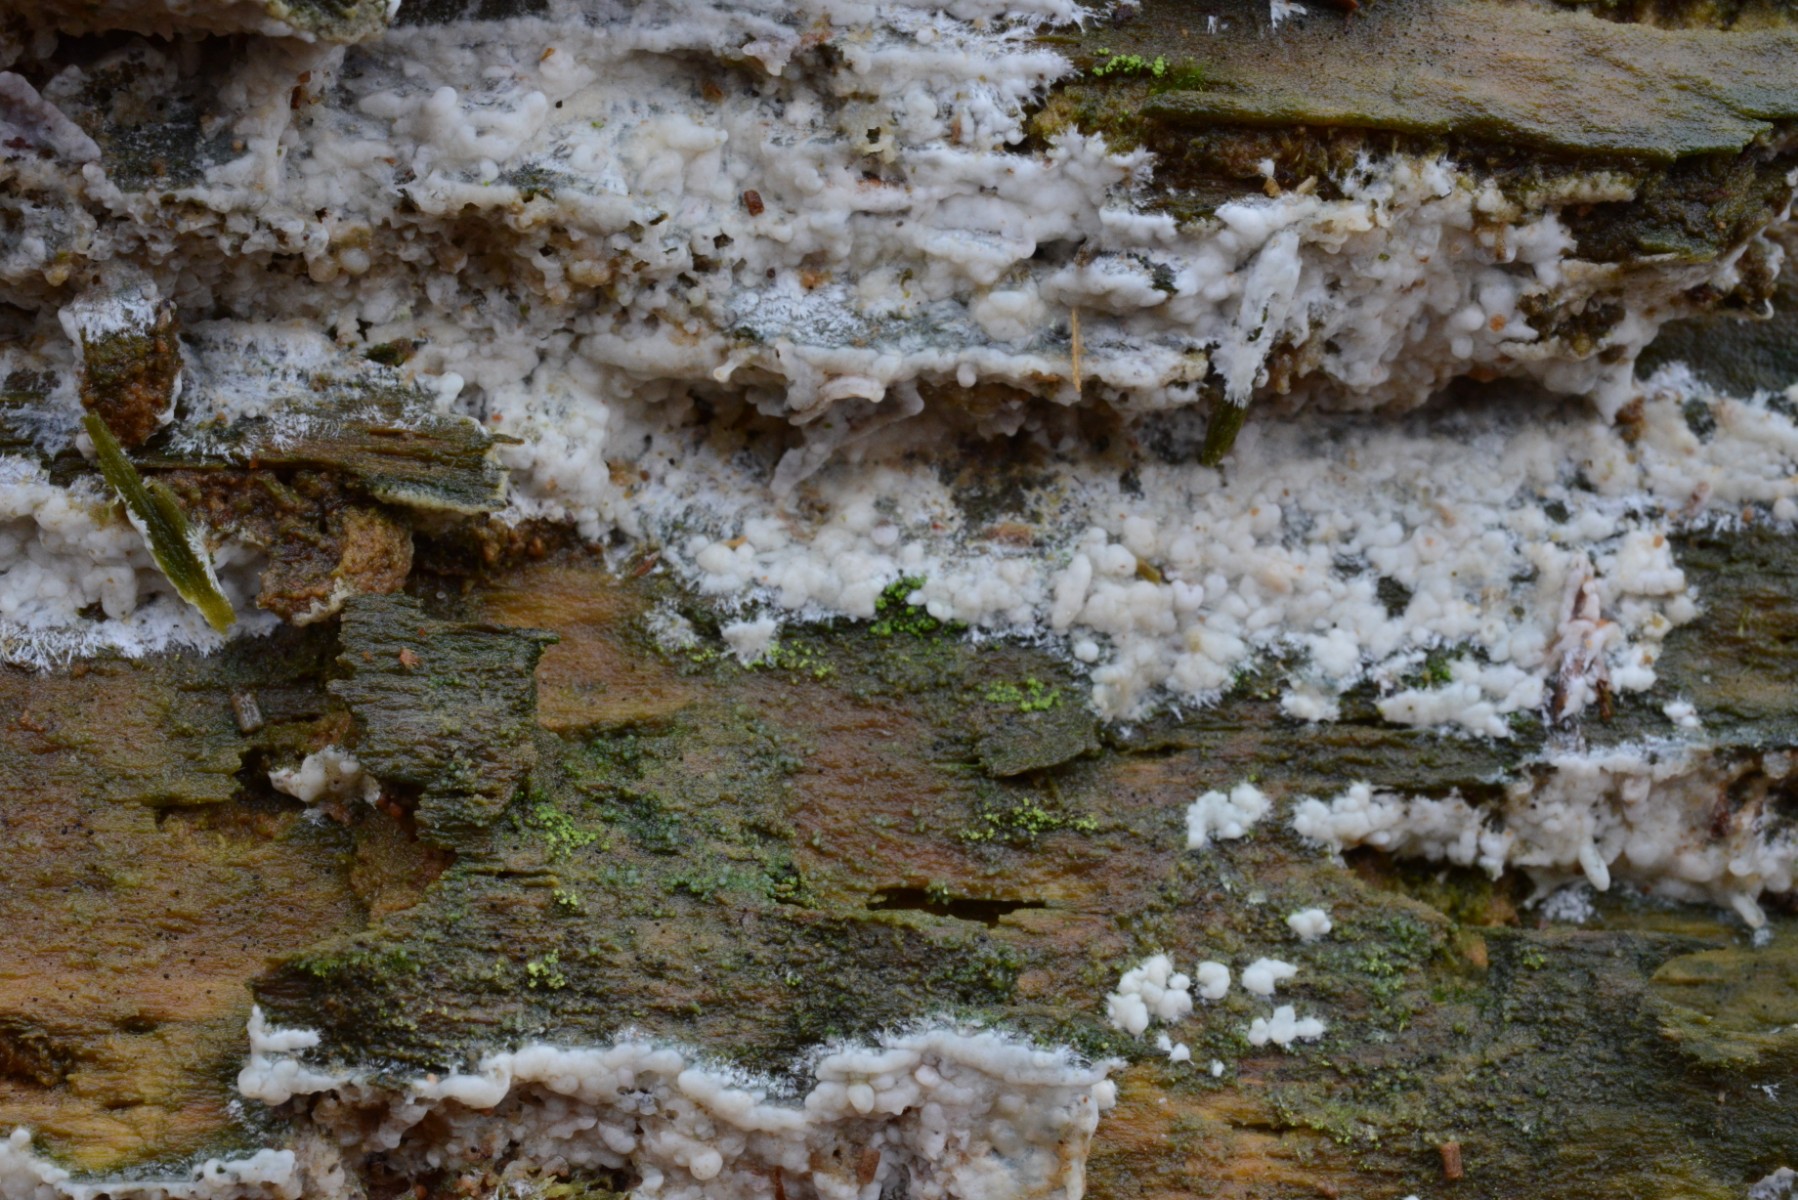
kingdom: Fungi
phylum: Basidiomycota
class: Agaricomycetes
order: Polyporales
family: Phanerochaetaceae
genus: Phlebiopsis
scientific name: Phlebiopsis gigantea
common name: kæmpebarksvamp
